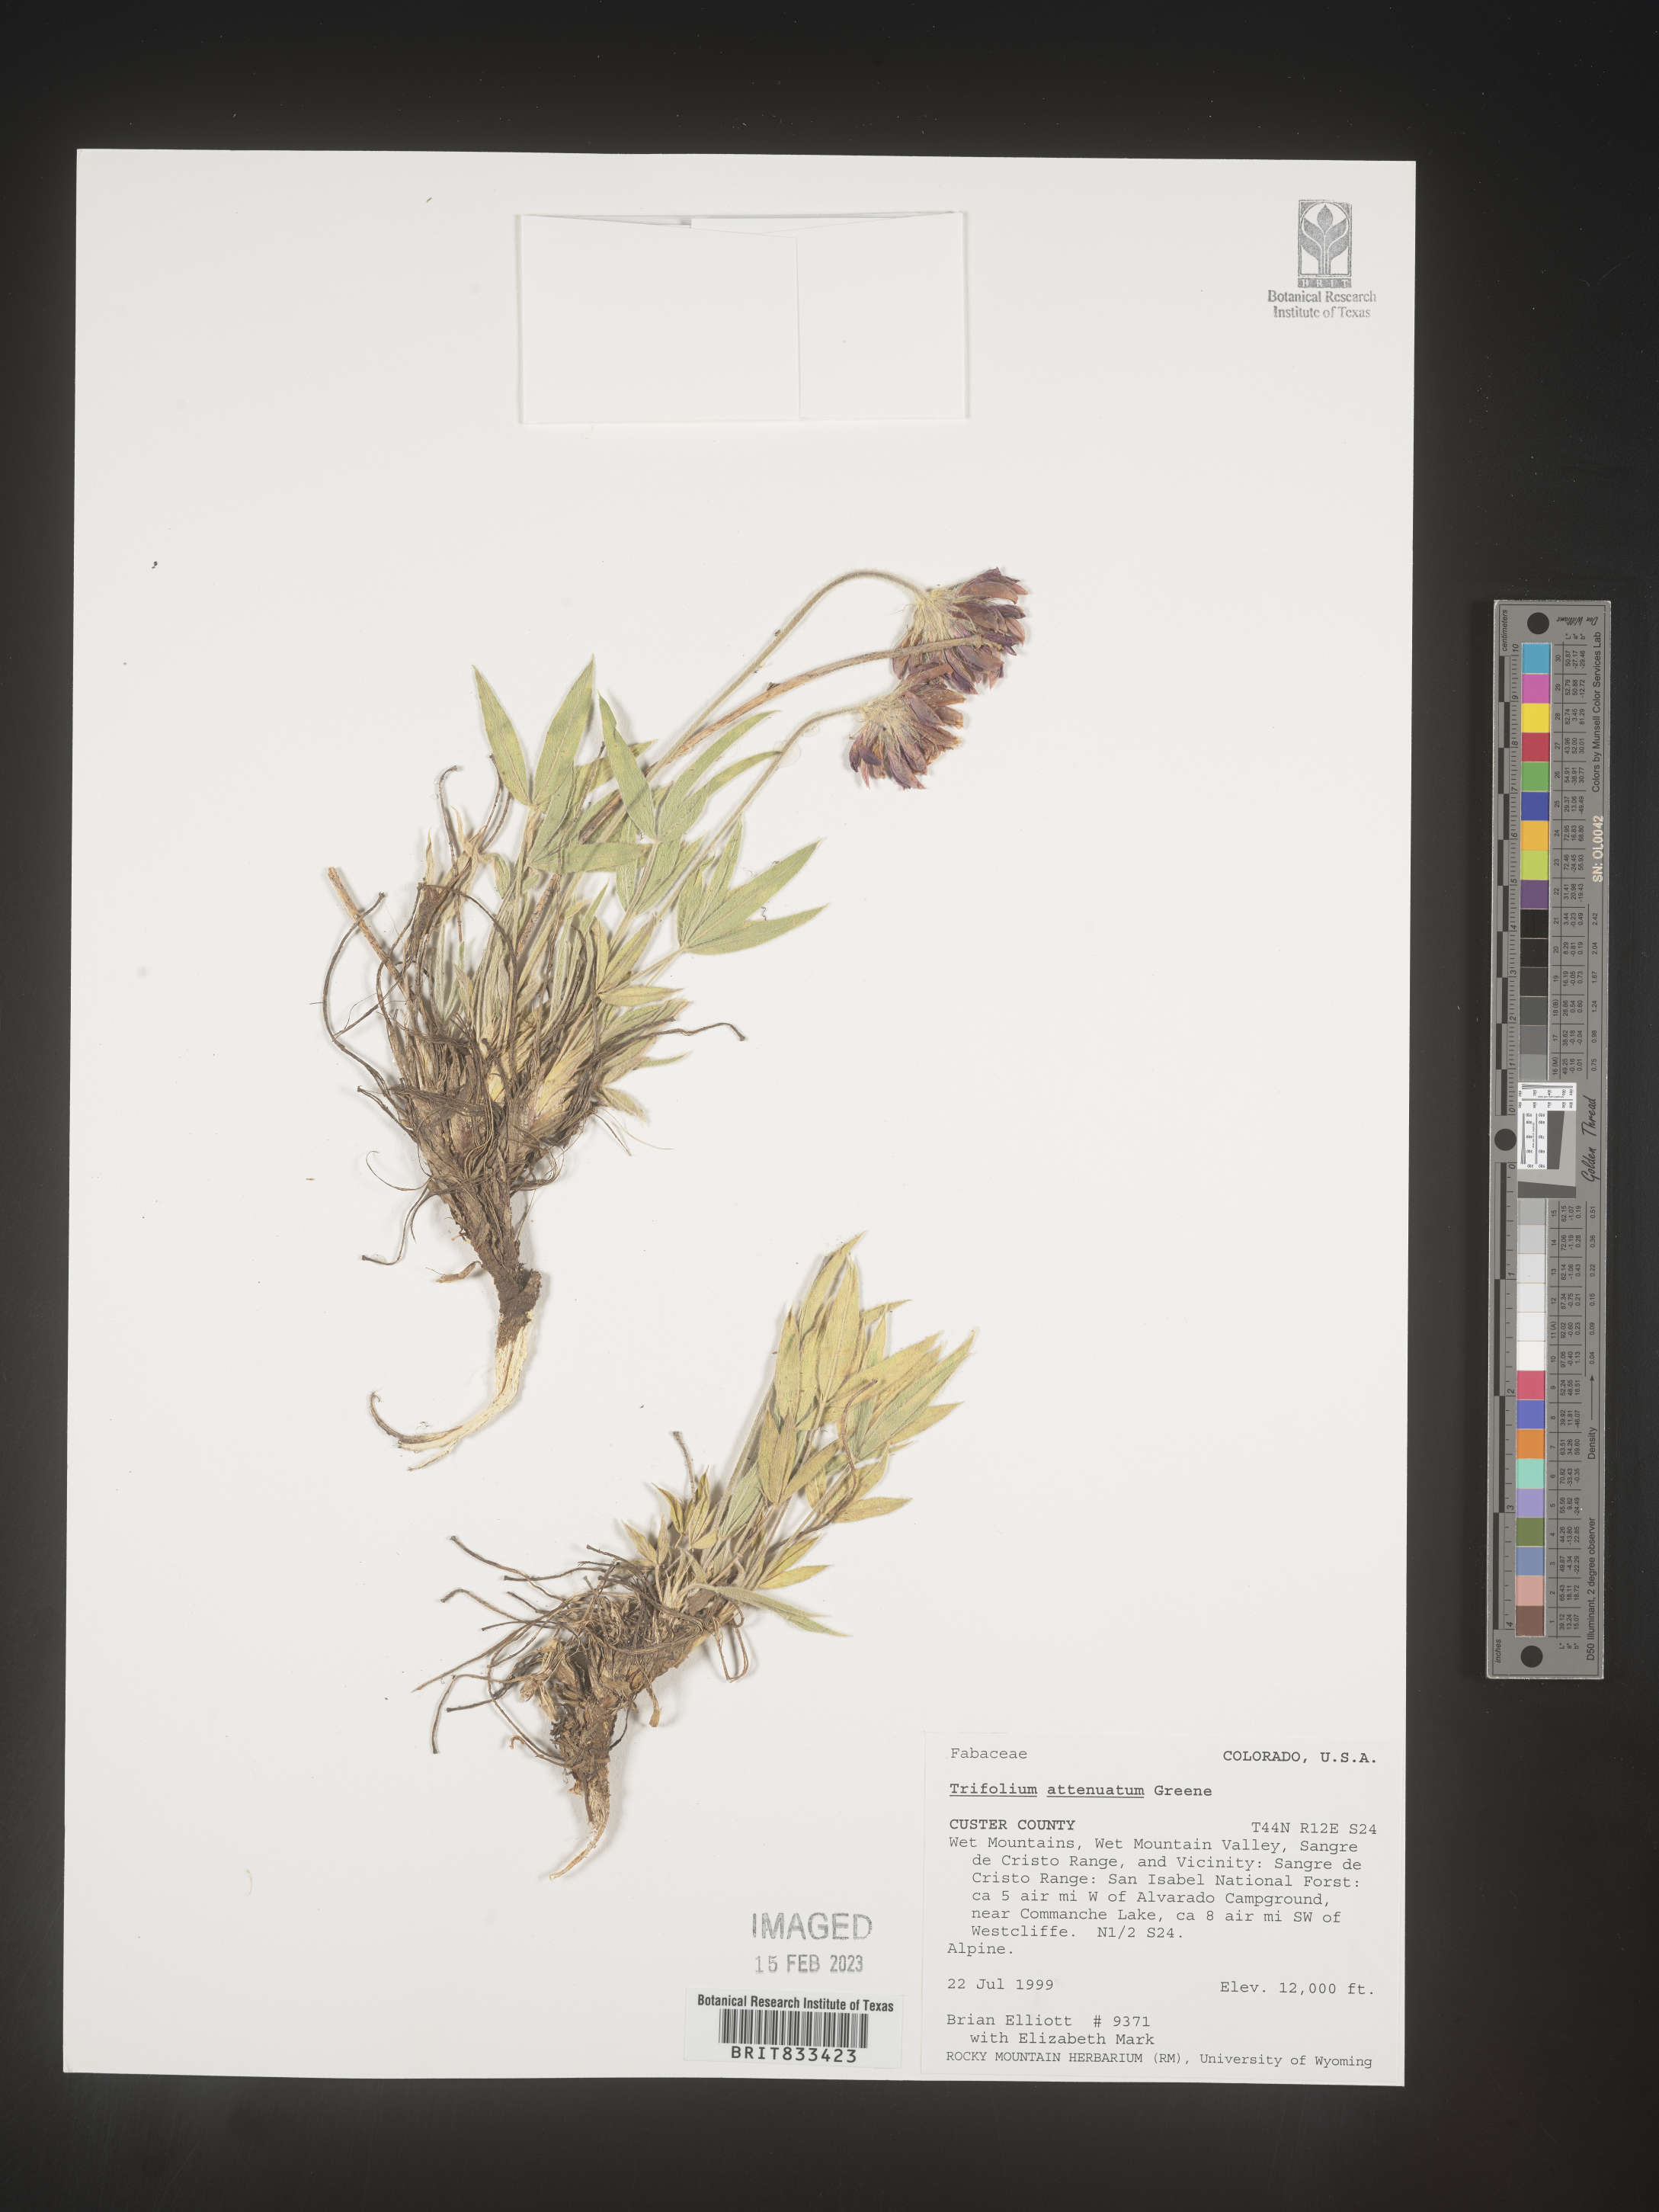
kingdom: Plantae
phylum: Tracheophyta
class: Magnoliopsida
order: Fabales
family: Fabaceae
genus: Trifolium
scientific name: Trifolium attenuatum
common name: Rocky mountain clover
